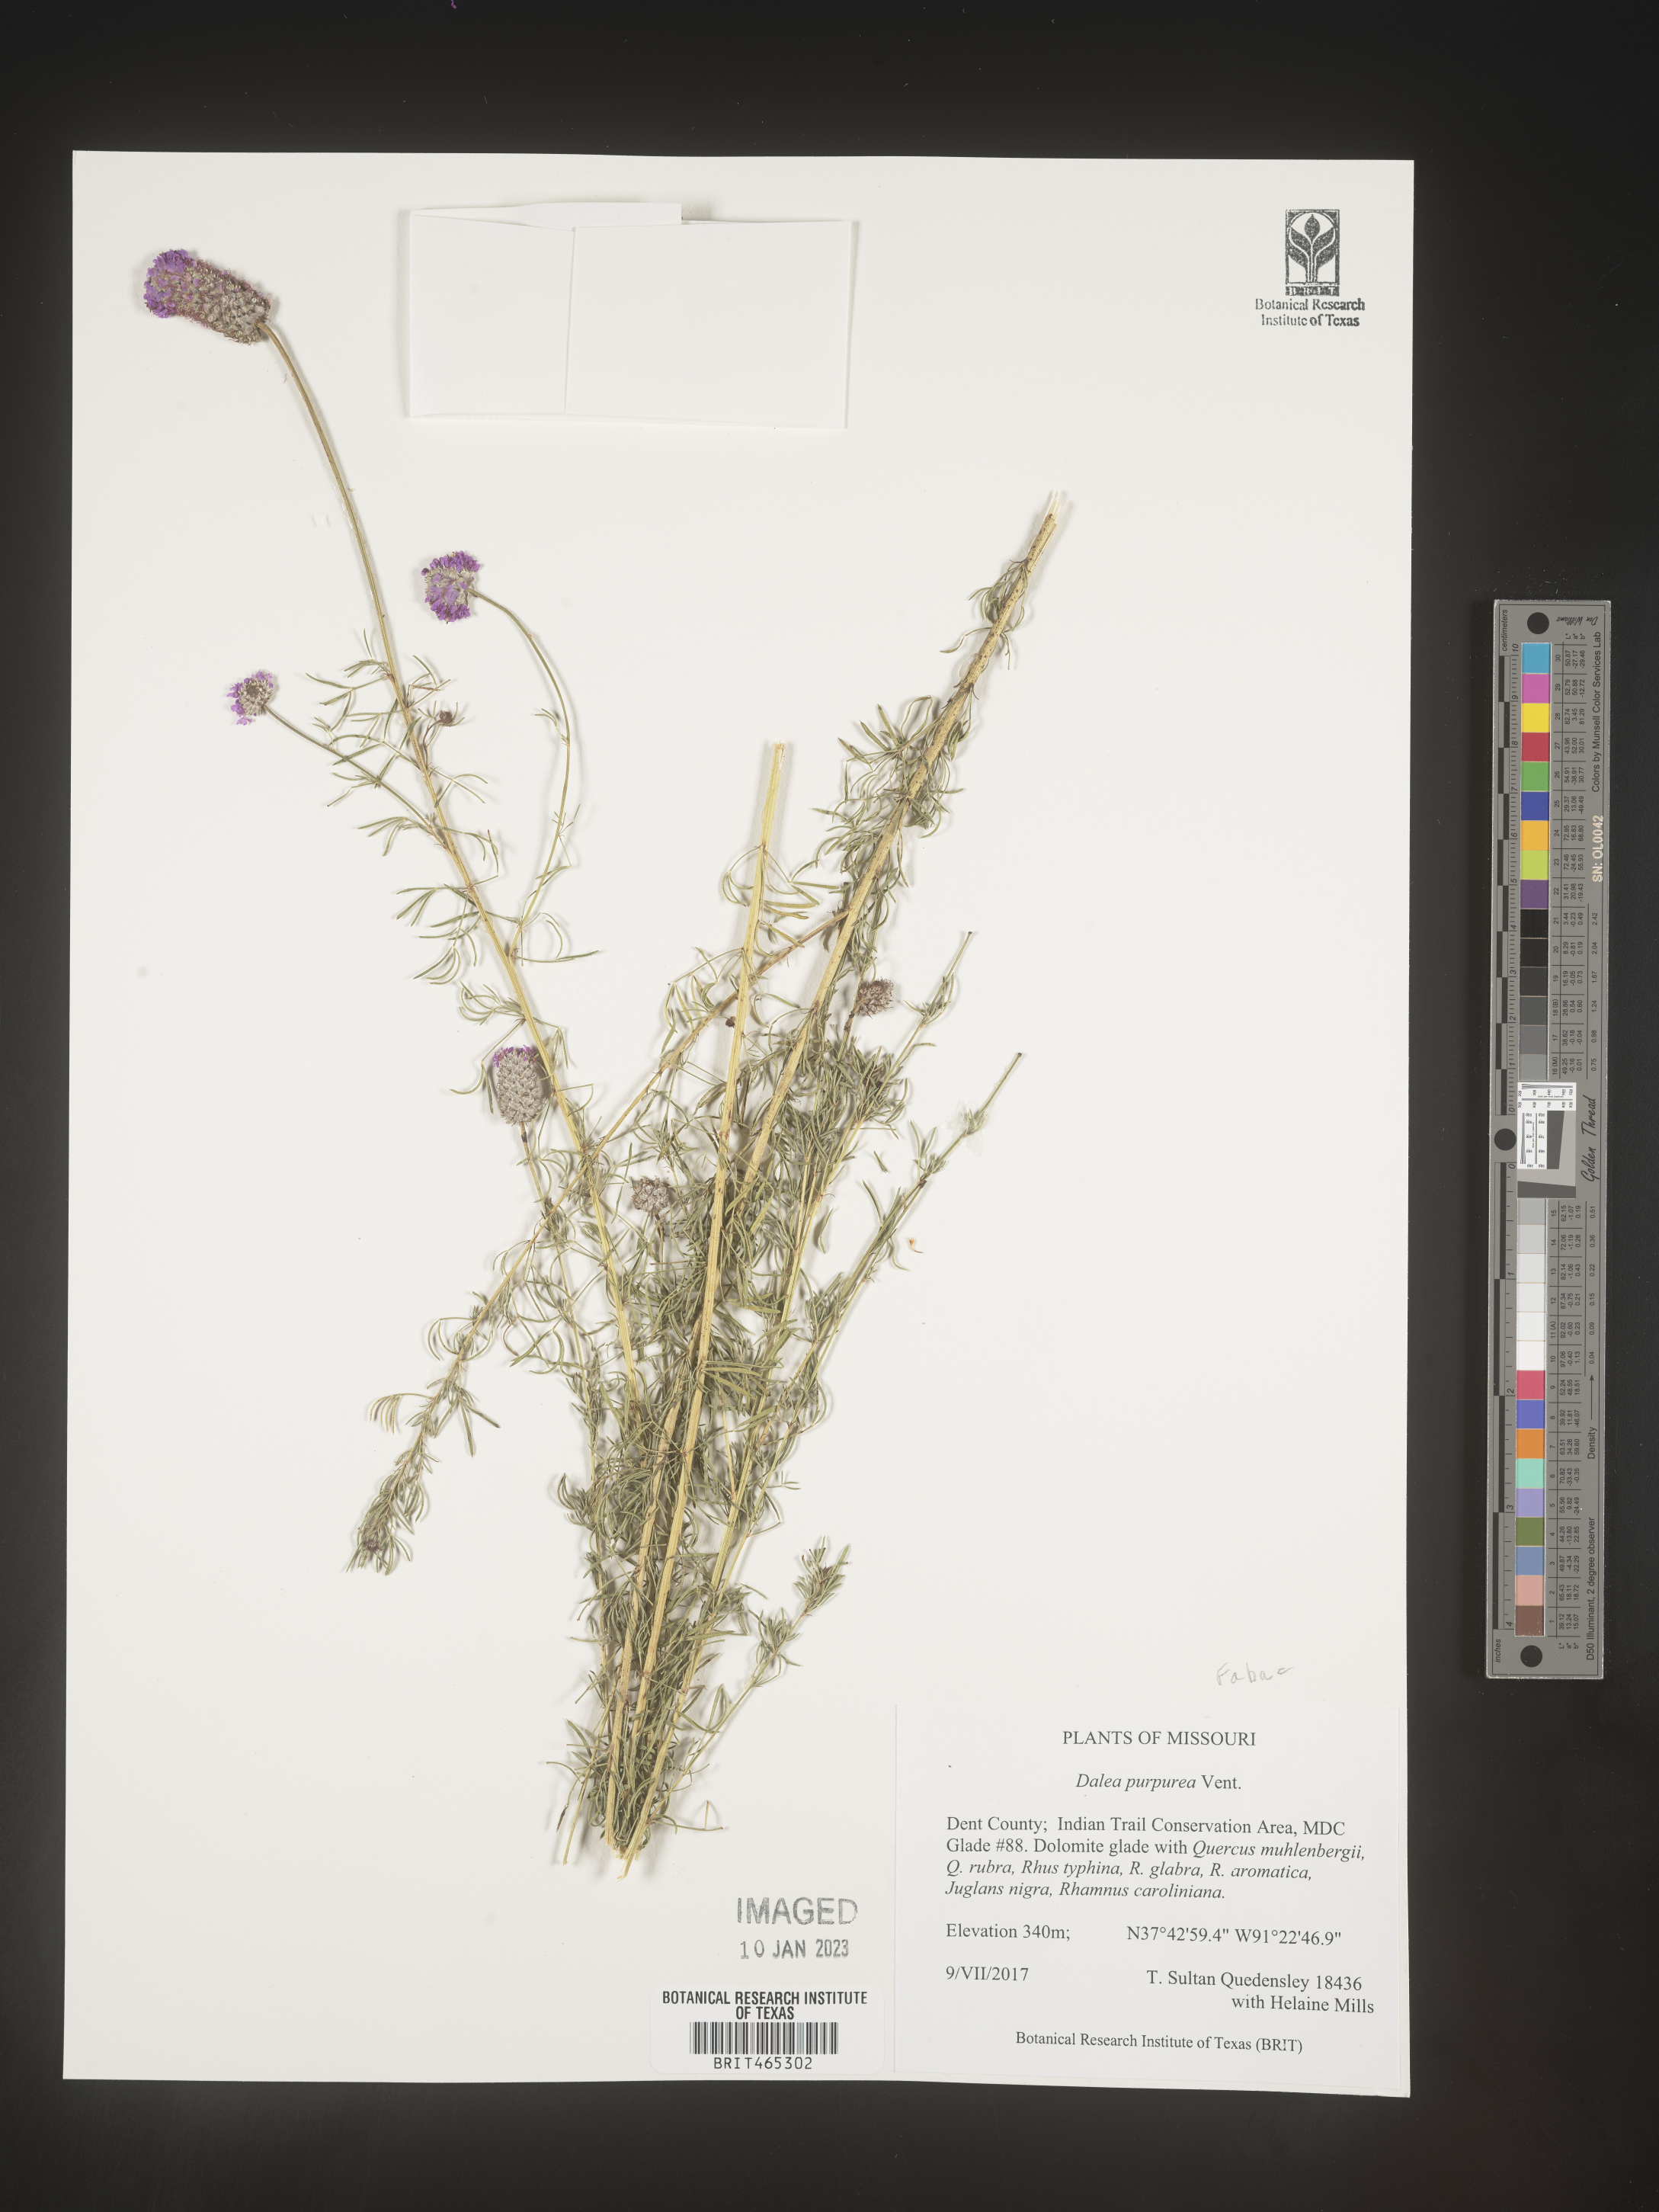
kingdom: Plantae
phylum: Tracheophyta
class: Magnoliopsida
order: Fabales
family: Fabaceae
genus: Dalea
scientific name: Dalea purpurea
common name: Purple prairie-clover
